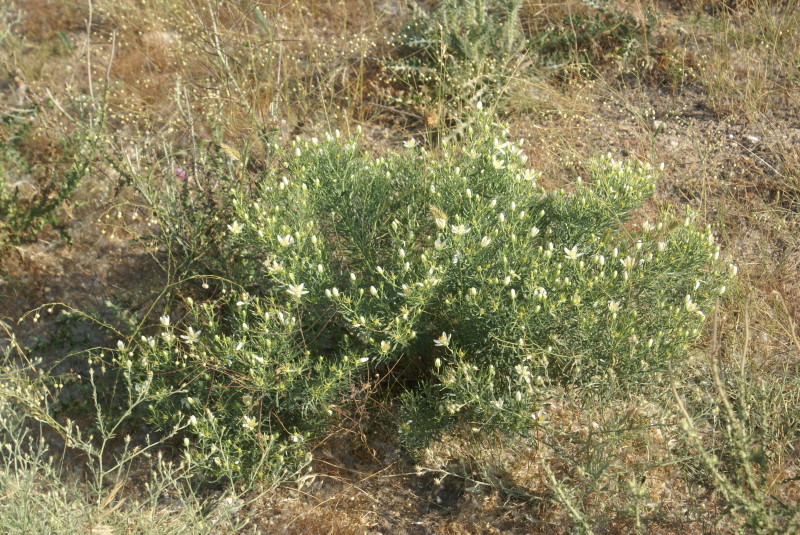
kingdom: Plantae
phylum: Tracheophyta
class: Magnoliopsida
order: Sapindales
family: Tetradiclidaceae
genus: Peganum
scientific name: Peganum harmala
